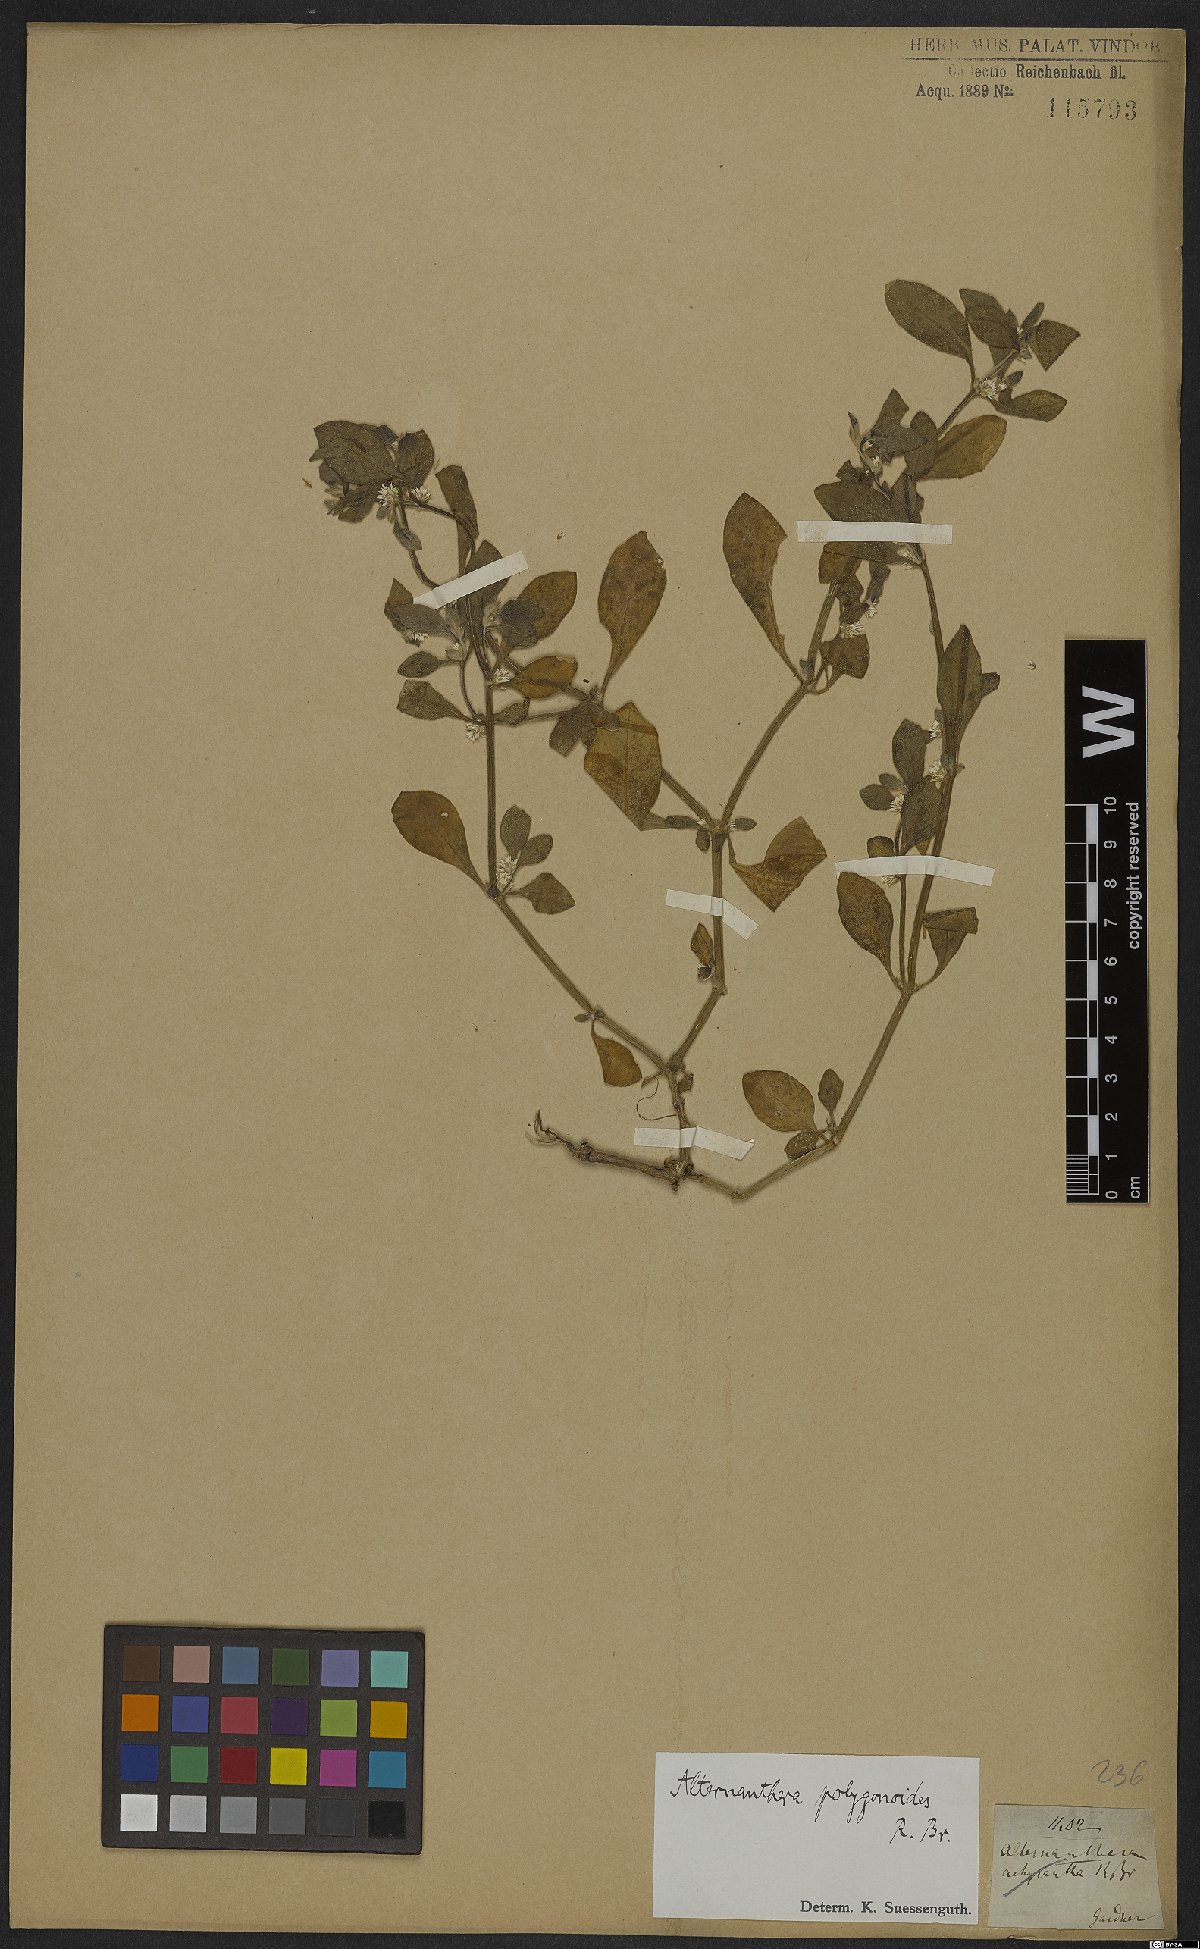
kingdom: Plantae
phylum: Tracheophyta
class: Magnoliopsida
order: Caryophyllales
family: Amaranthaceae
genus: Alternanthera
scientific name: Alternanthera sessilis
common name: Sessile joyweed
